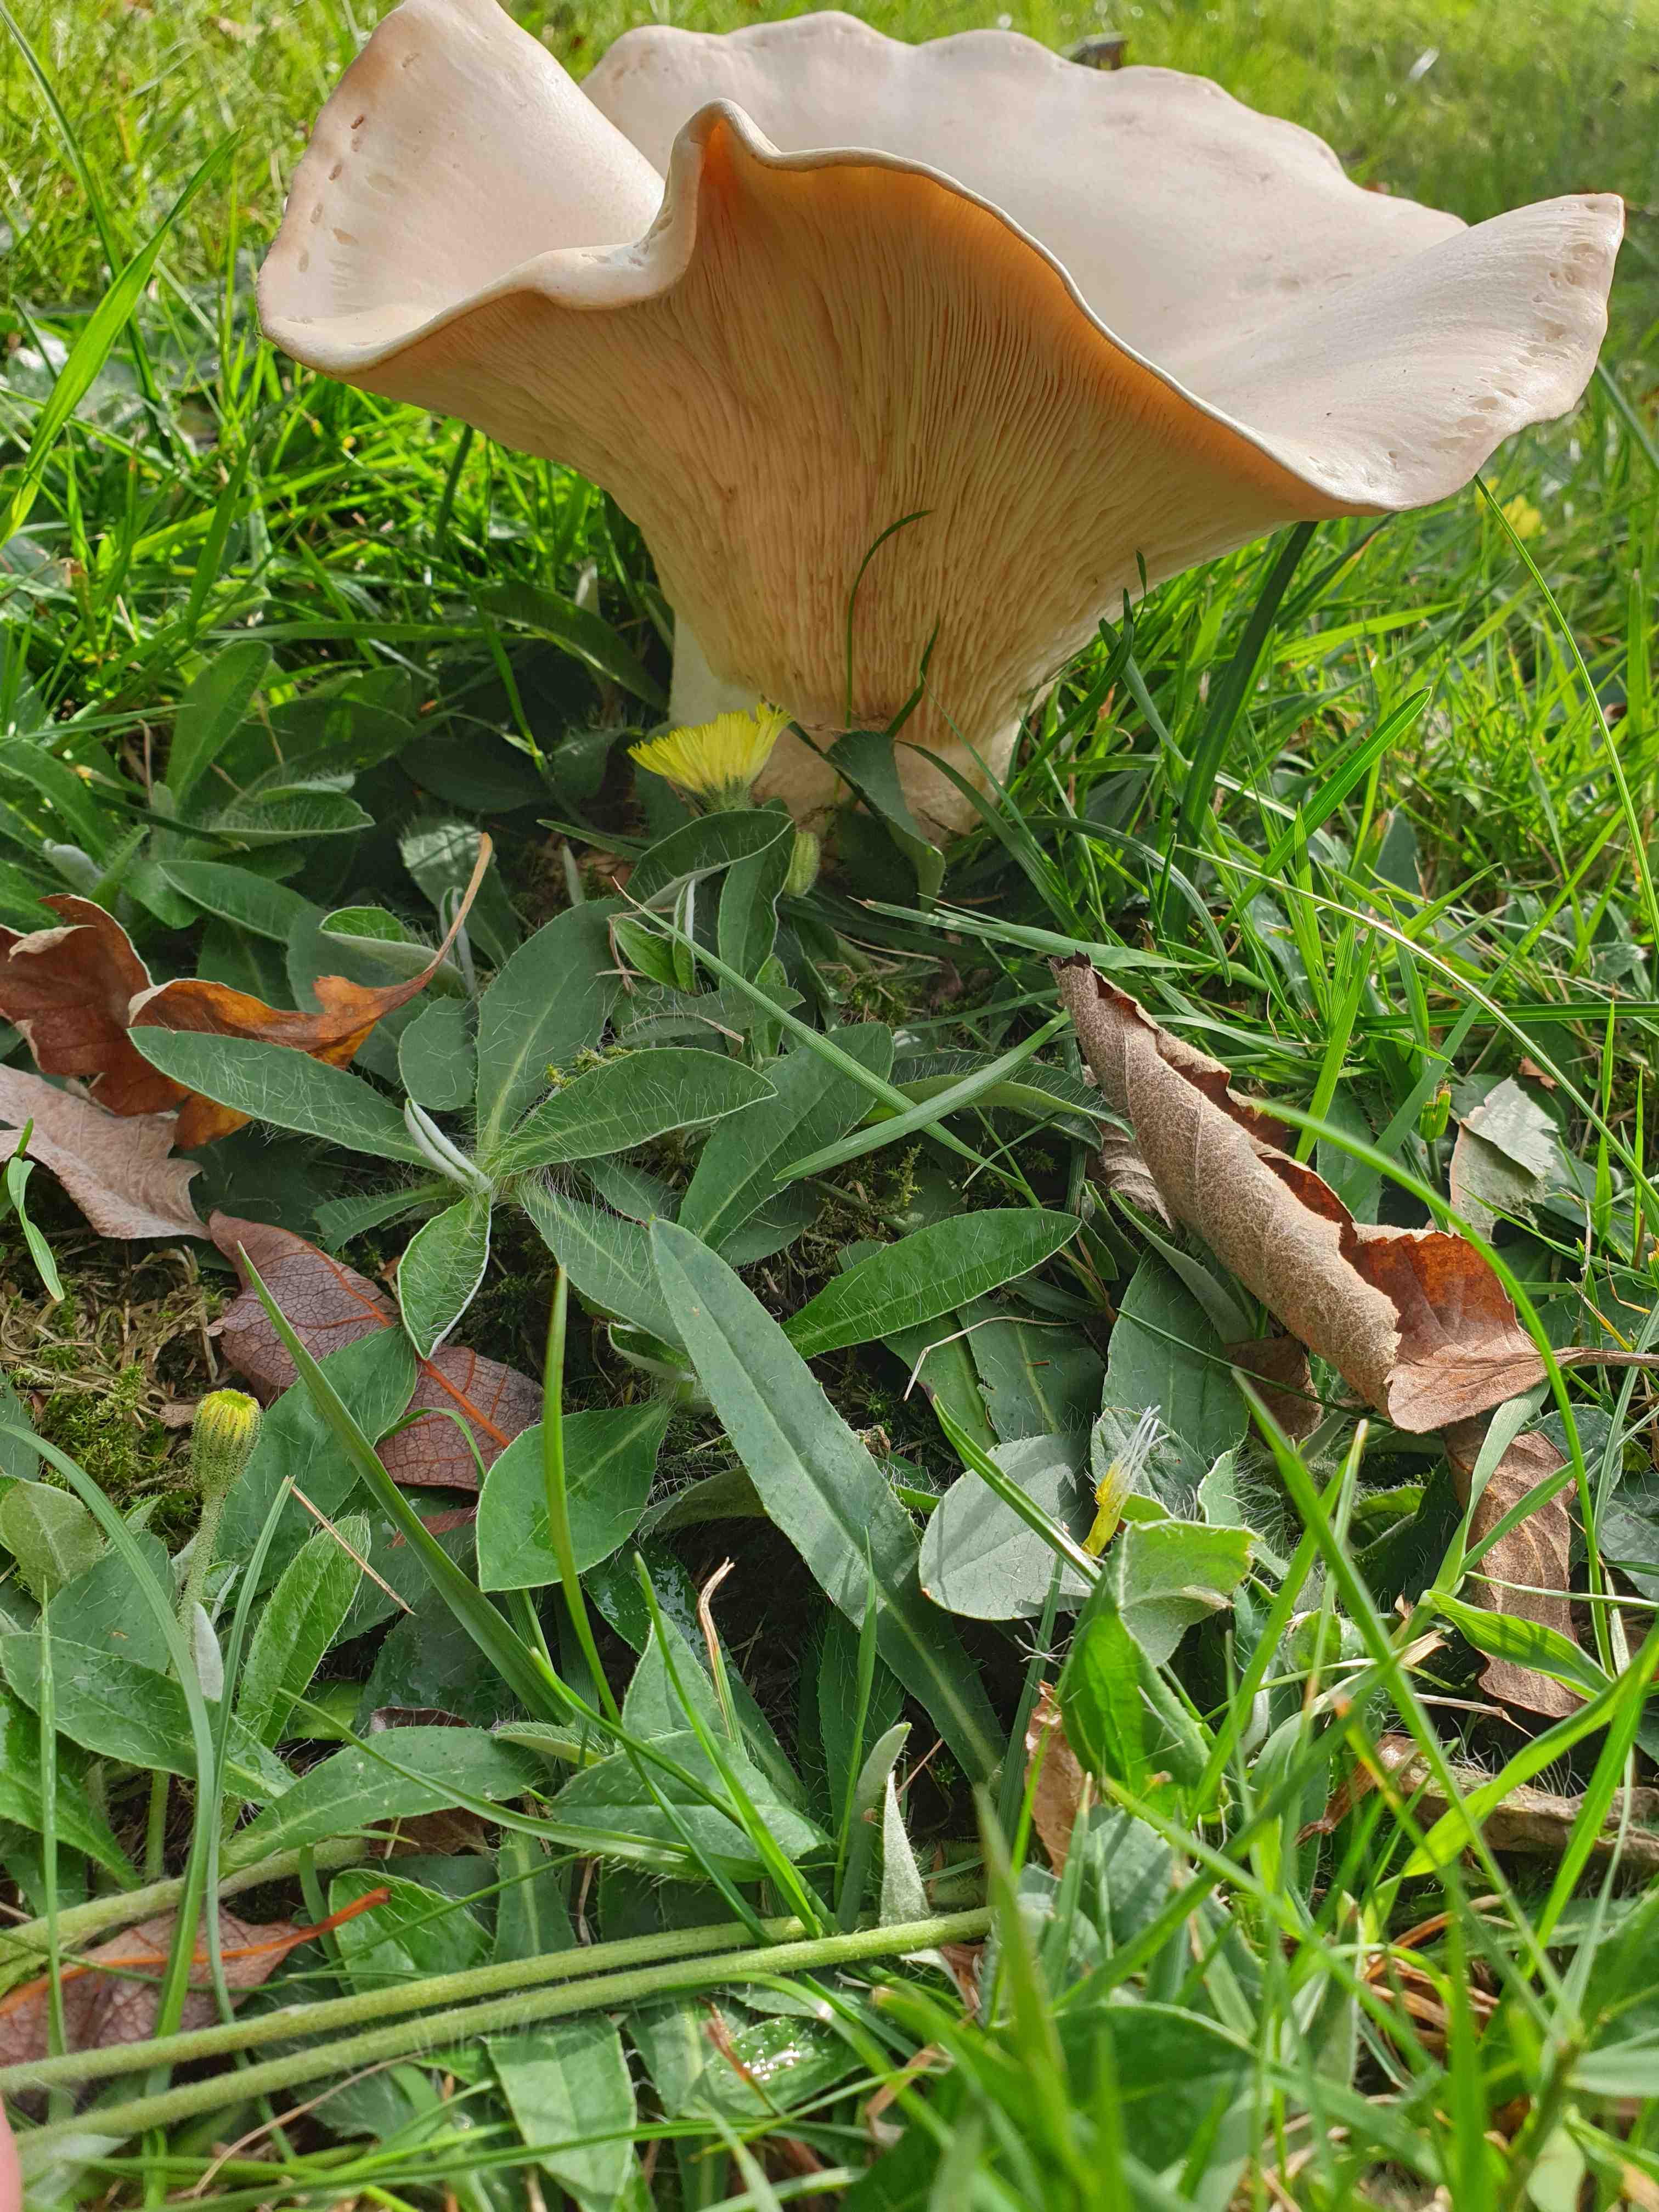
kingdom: Fungi
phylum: Basidiomycota
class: Agaricomycetes
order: Agaricales
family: Tricholomataceae
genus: Aspropaxillus
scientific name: Aspropaxillus giganteus
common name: kæmpe-tragtridderhat
